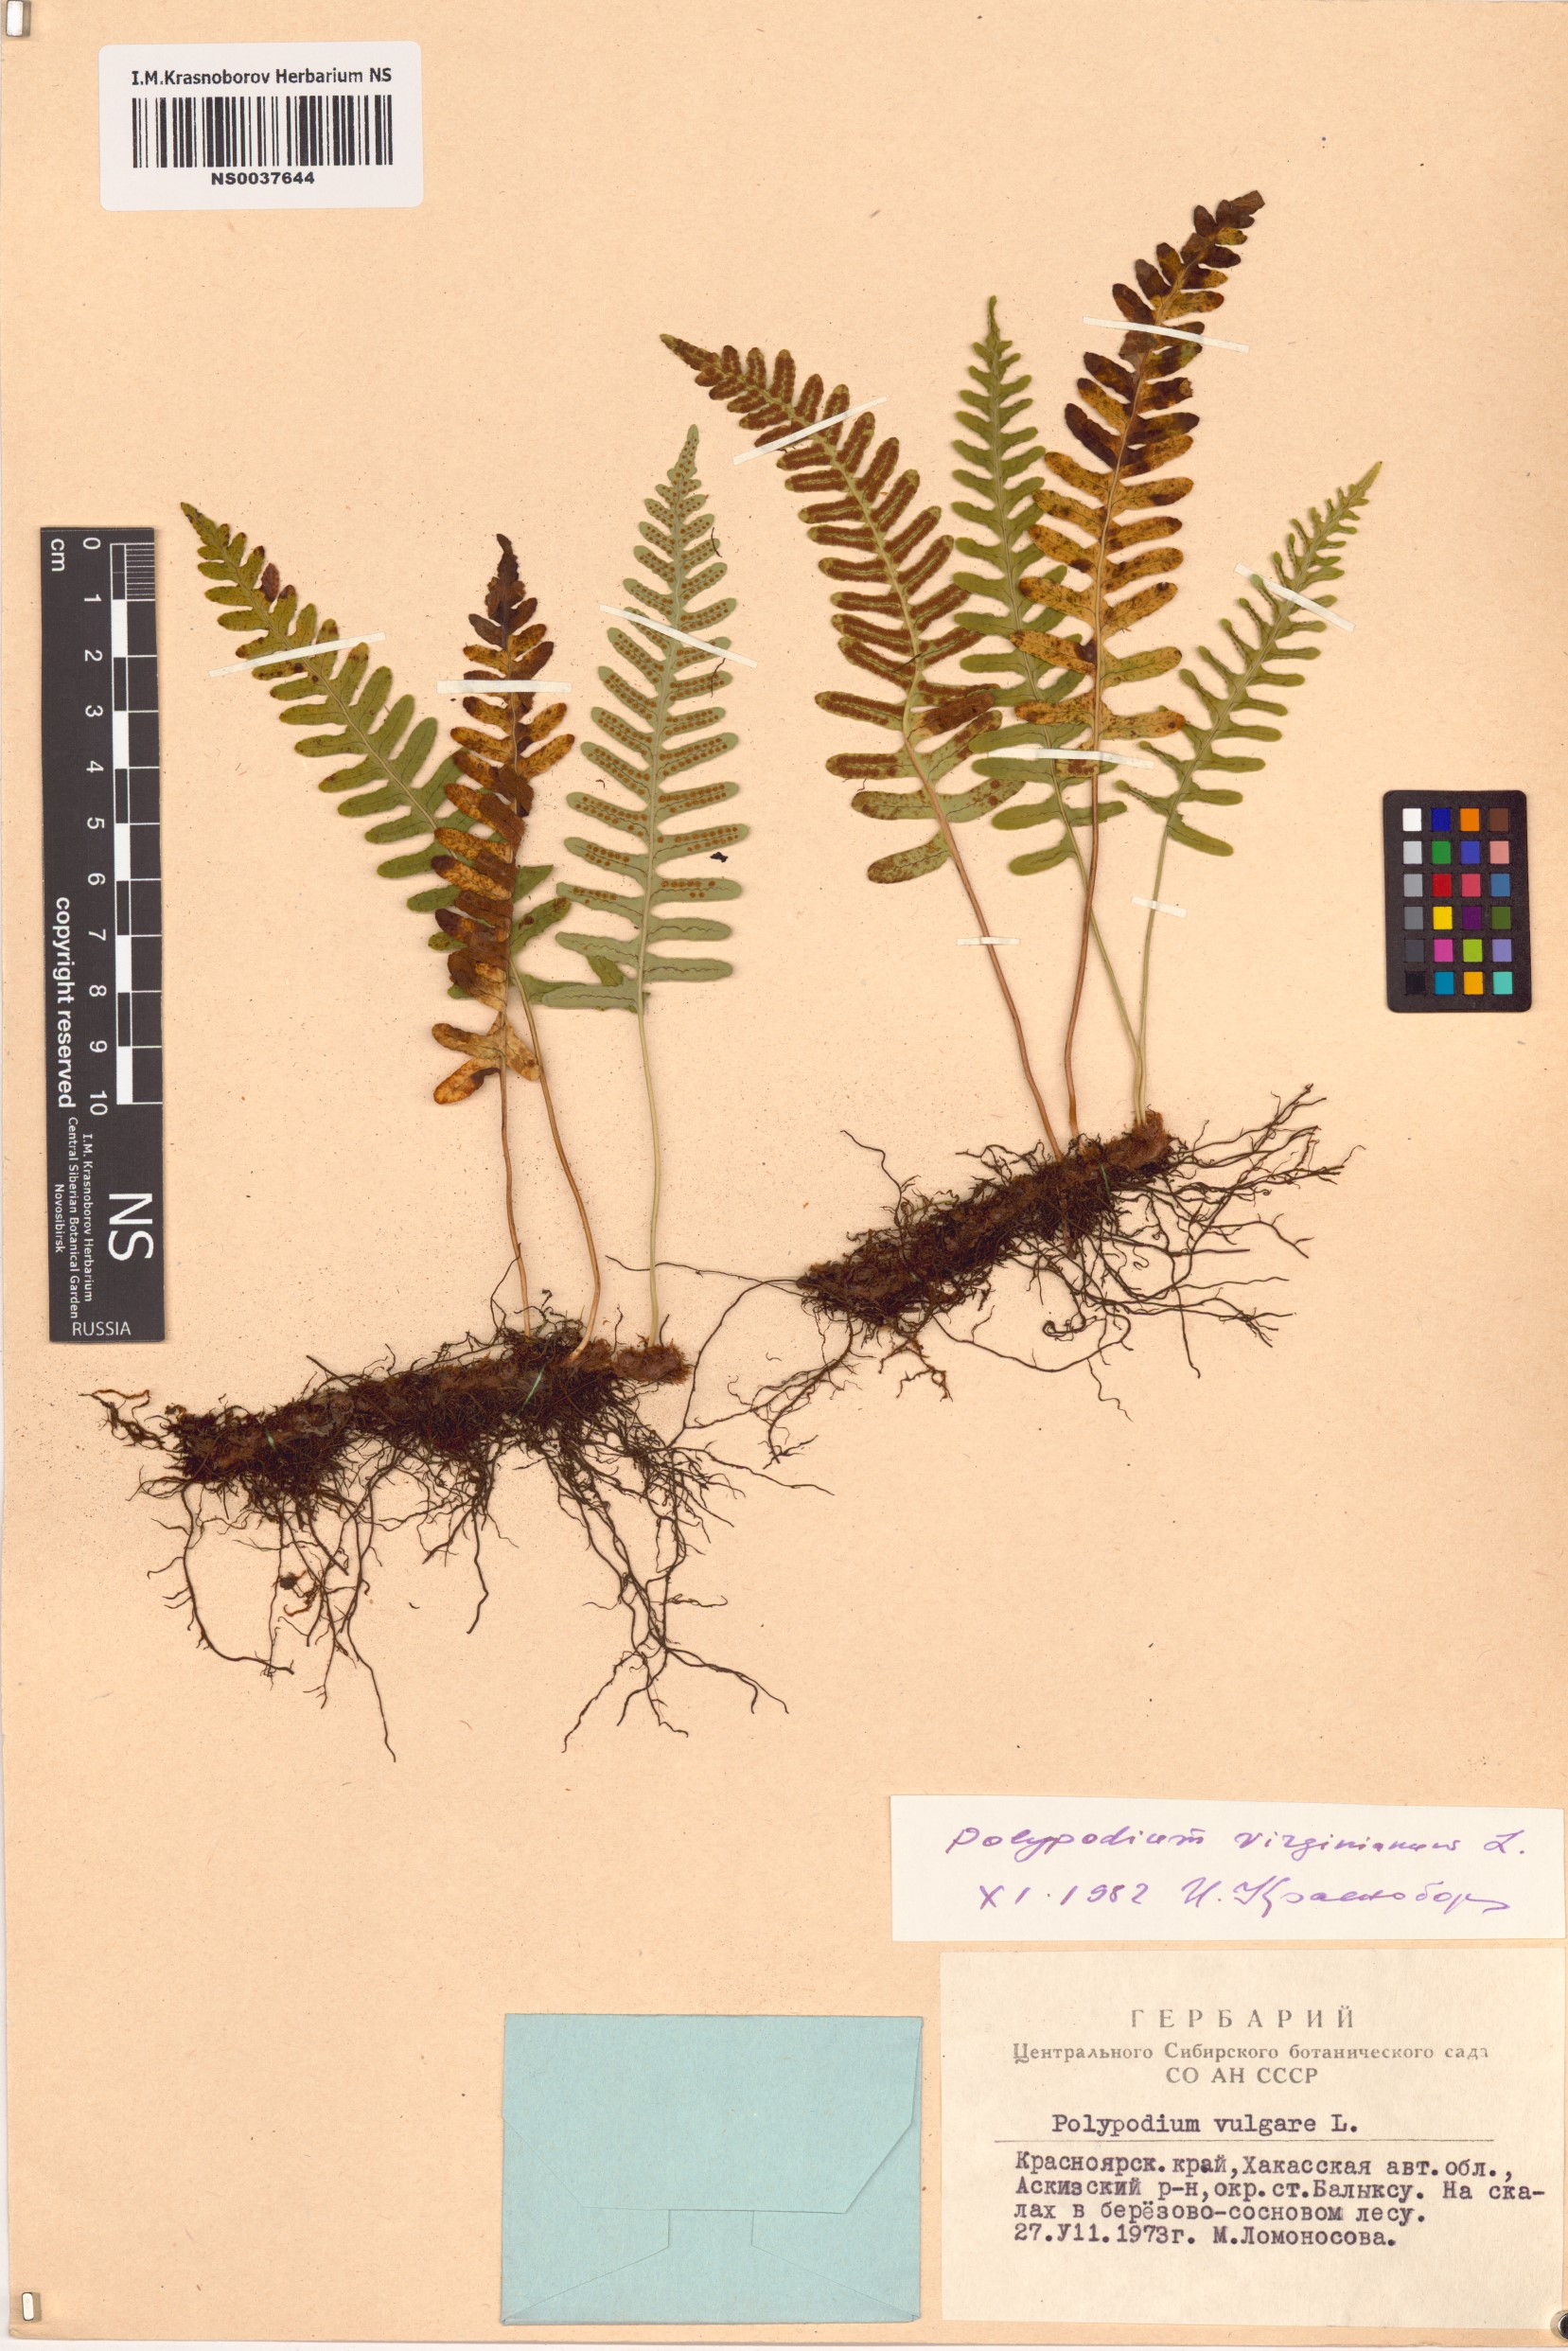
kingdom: Plantae
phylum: Tracheophyta
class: Polypodiopsida
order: Polypodiales
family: Polypodiaceae
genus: Polypodium
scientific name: Polypodium virginianum
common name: American wall fern
